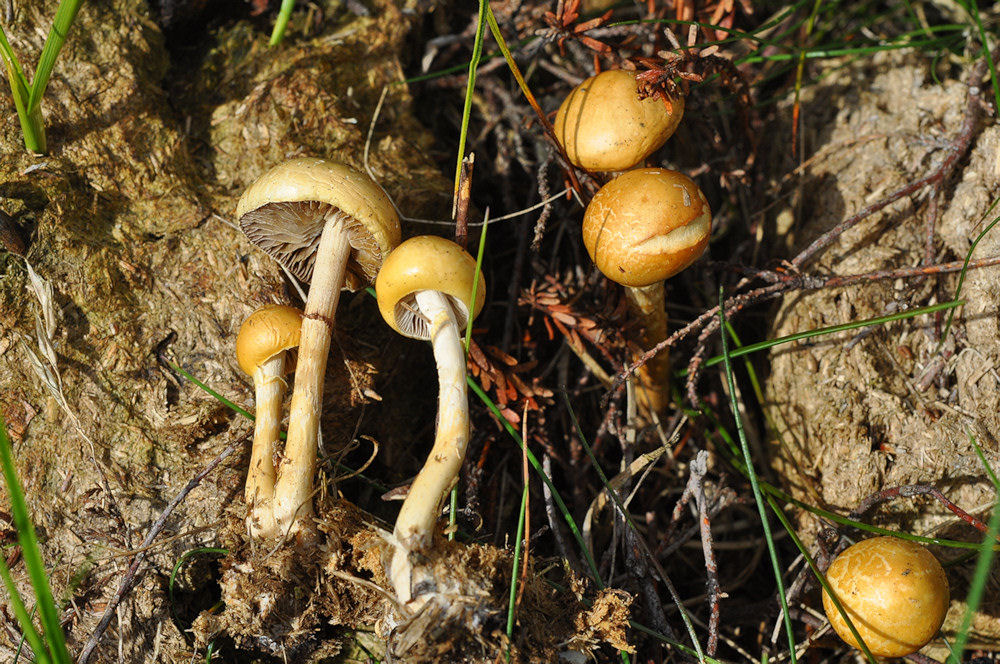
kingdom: Fungi
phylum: Basidiomycota
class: Agaricomycetes
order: Agaricales
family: Strophariaceae
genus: Protostropharia
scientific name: Protostropharia semiglobata
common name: halvkugleformet bredblad
